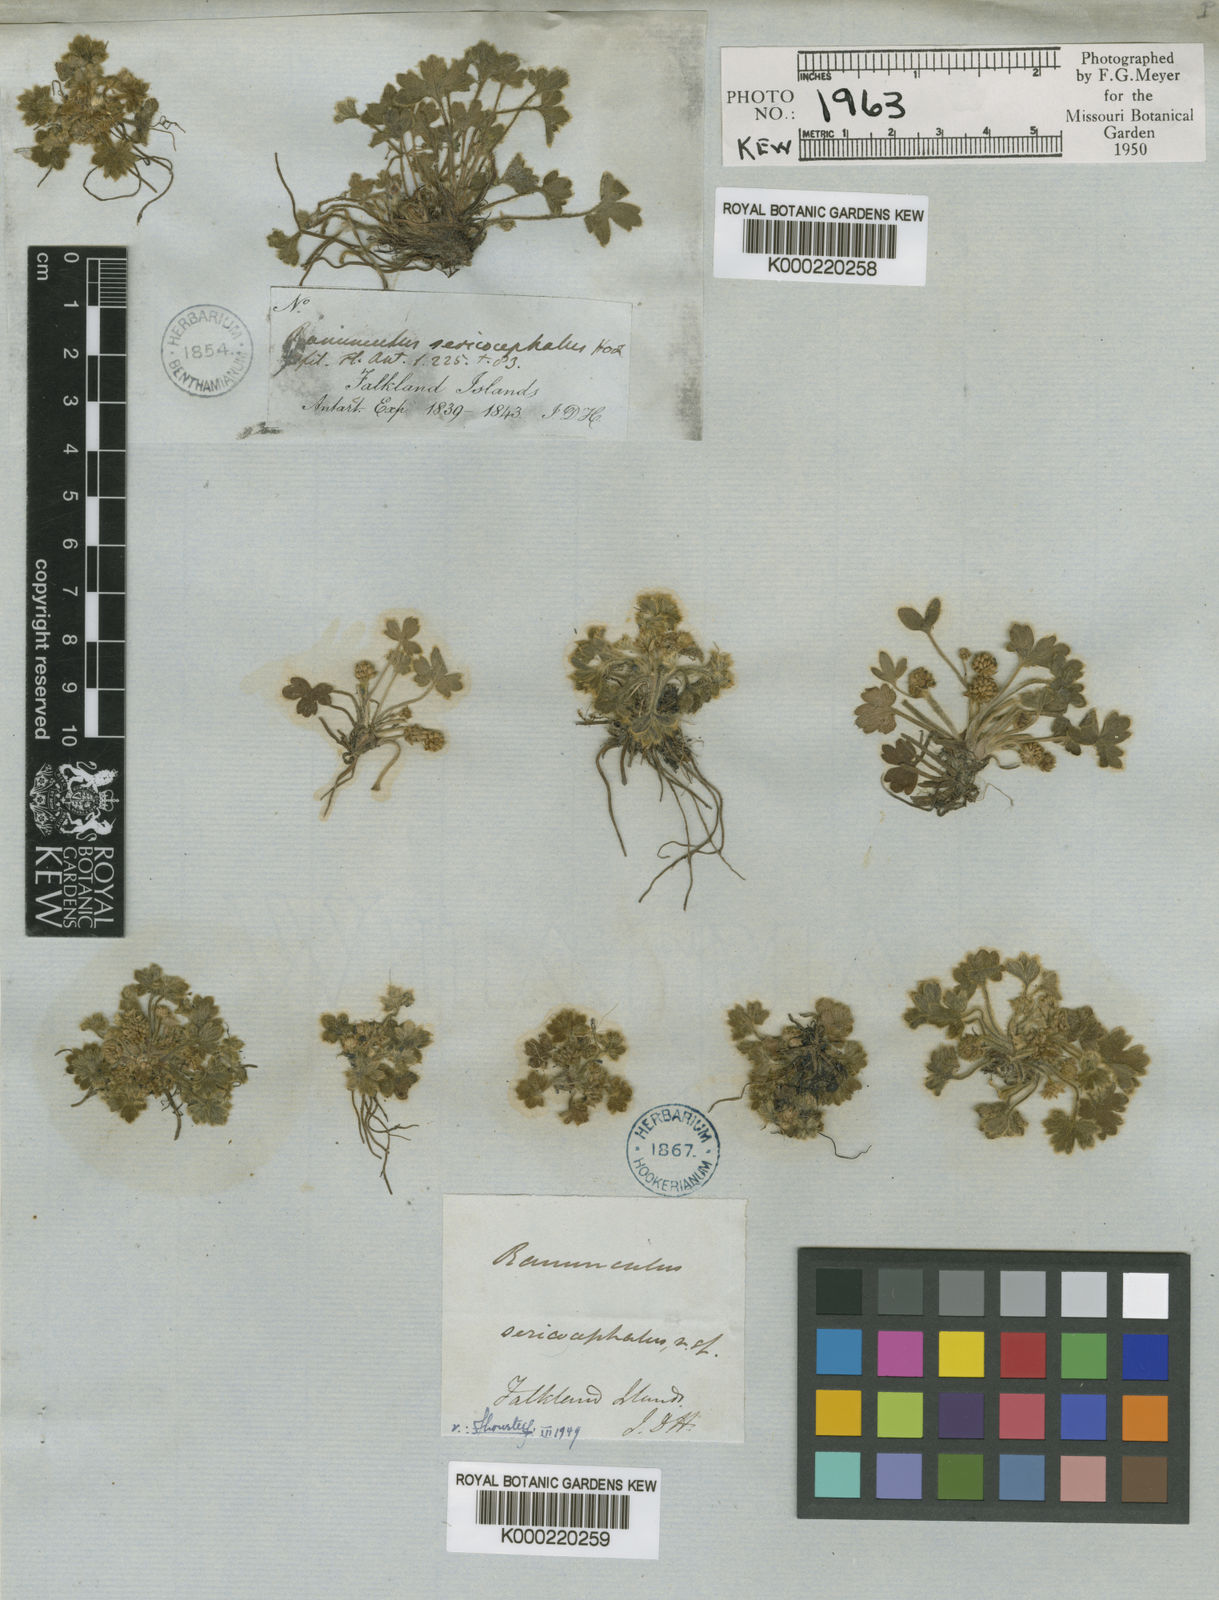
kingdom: Plantae
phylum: Tracheophyta
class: Magnoliopsida
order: Ranunculales
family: Ranunculaceae
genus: Ranunculus
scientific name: Ranunculus sericocephalus
